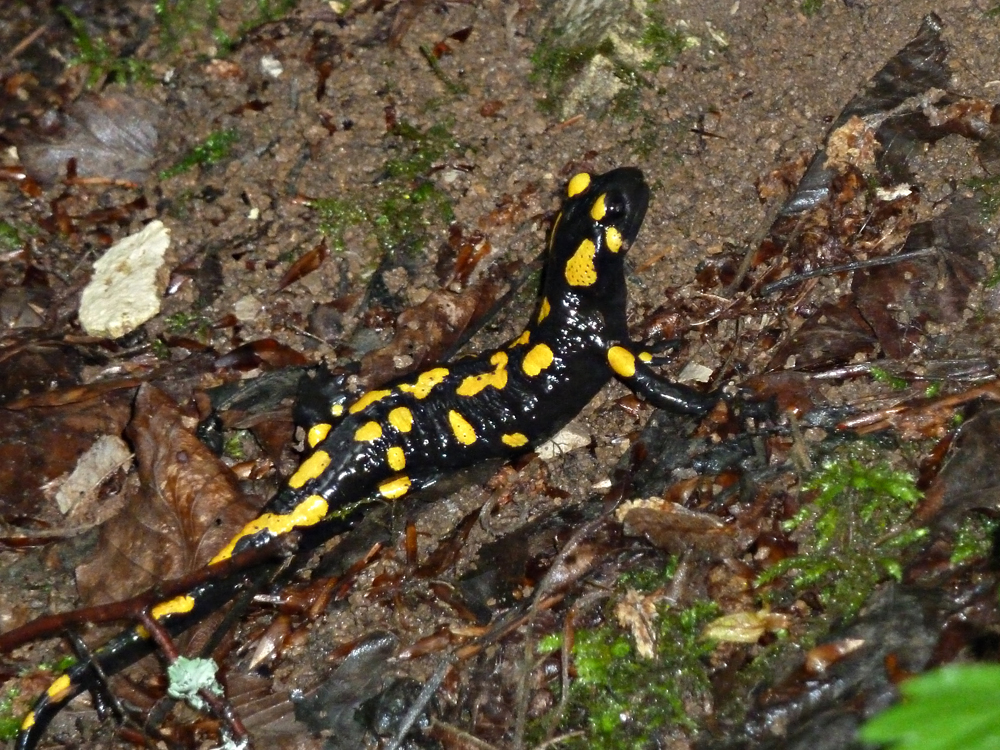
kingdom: Animalia
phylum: Chordata
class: Amphibia
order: Caudata
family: Salamandridae
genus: Salamandra
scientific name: Salamandra salamandra
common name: Fire salamander
